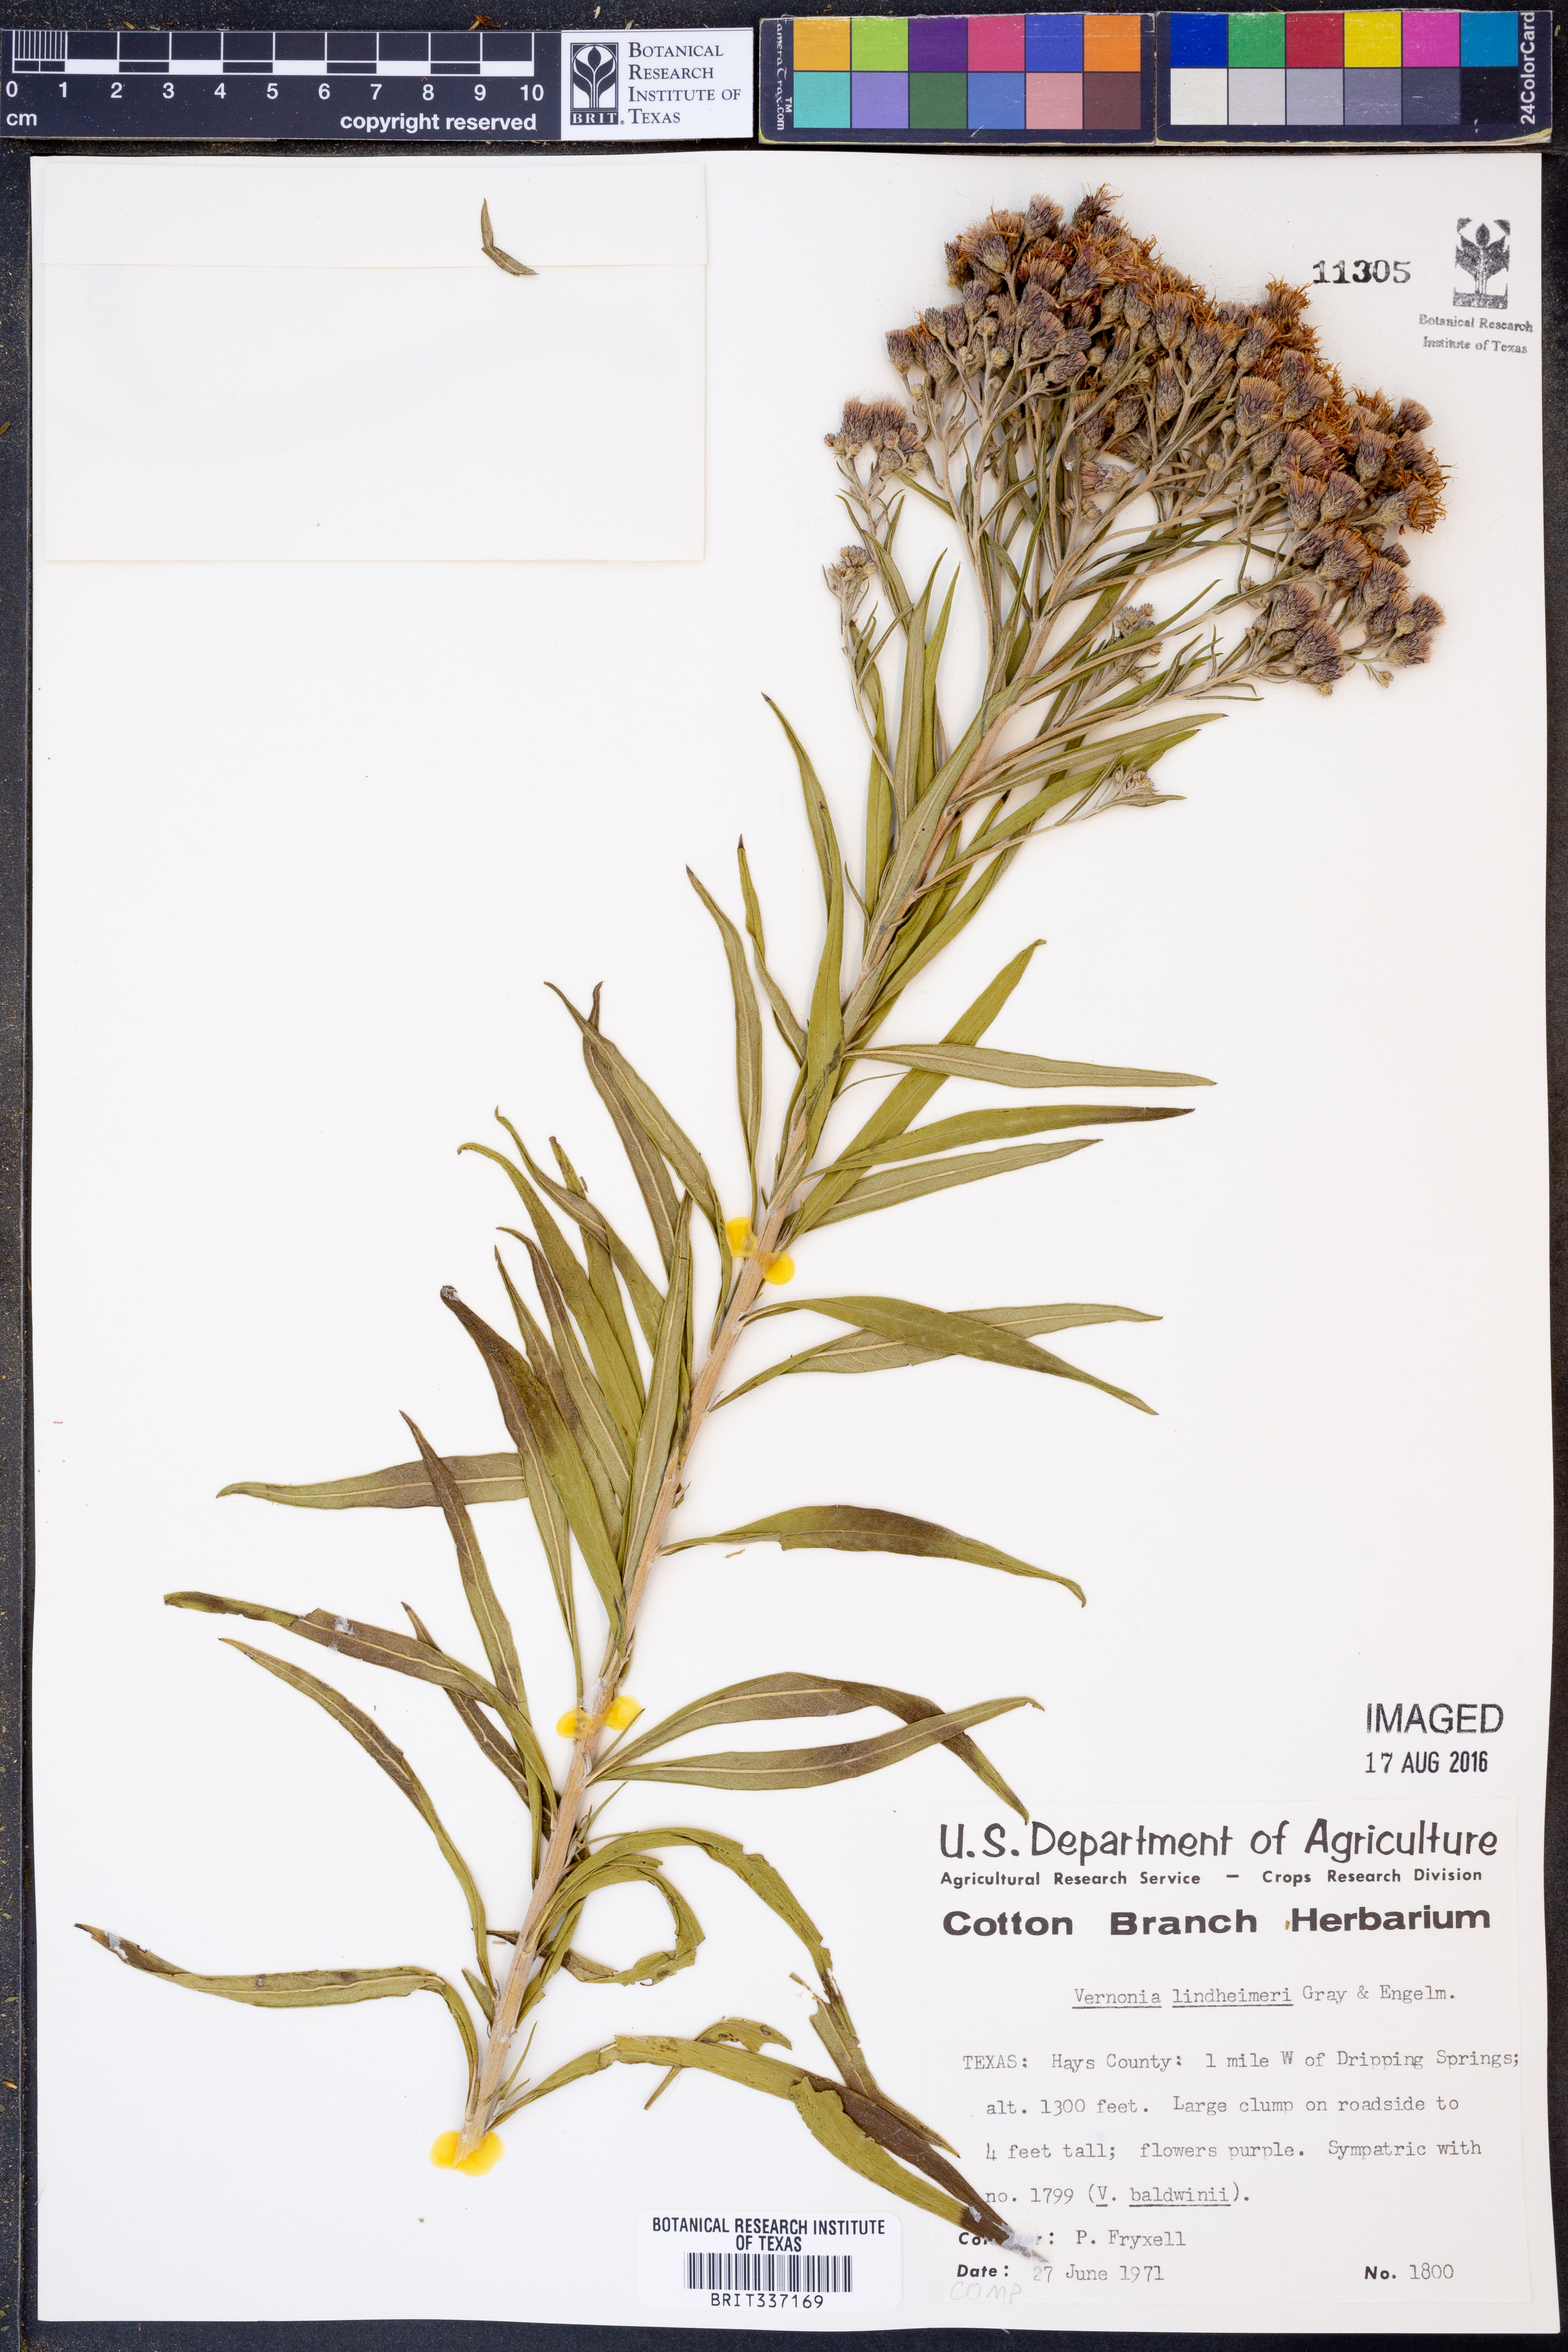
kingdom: Plantae
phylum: Tracheophyta
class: Magnoliopsida
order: Asterales
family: Asteraceae
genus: Vernonia
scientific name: Vernonia lindheimeri
